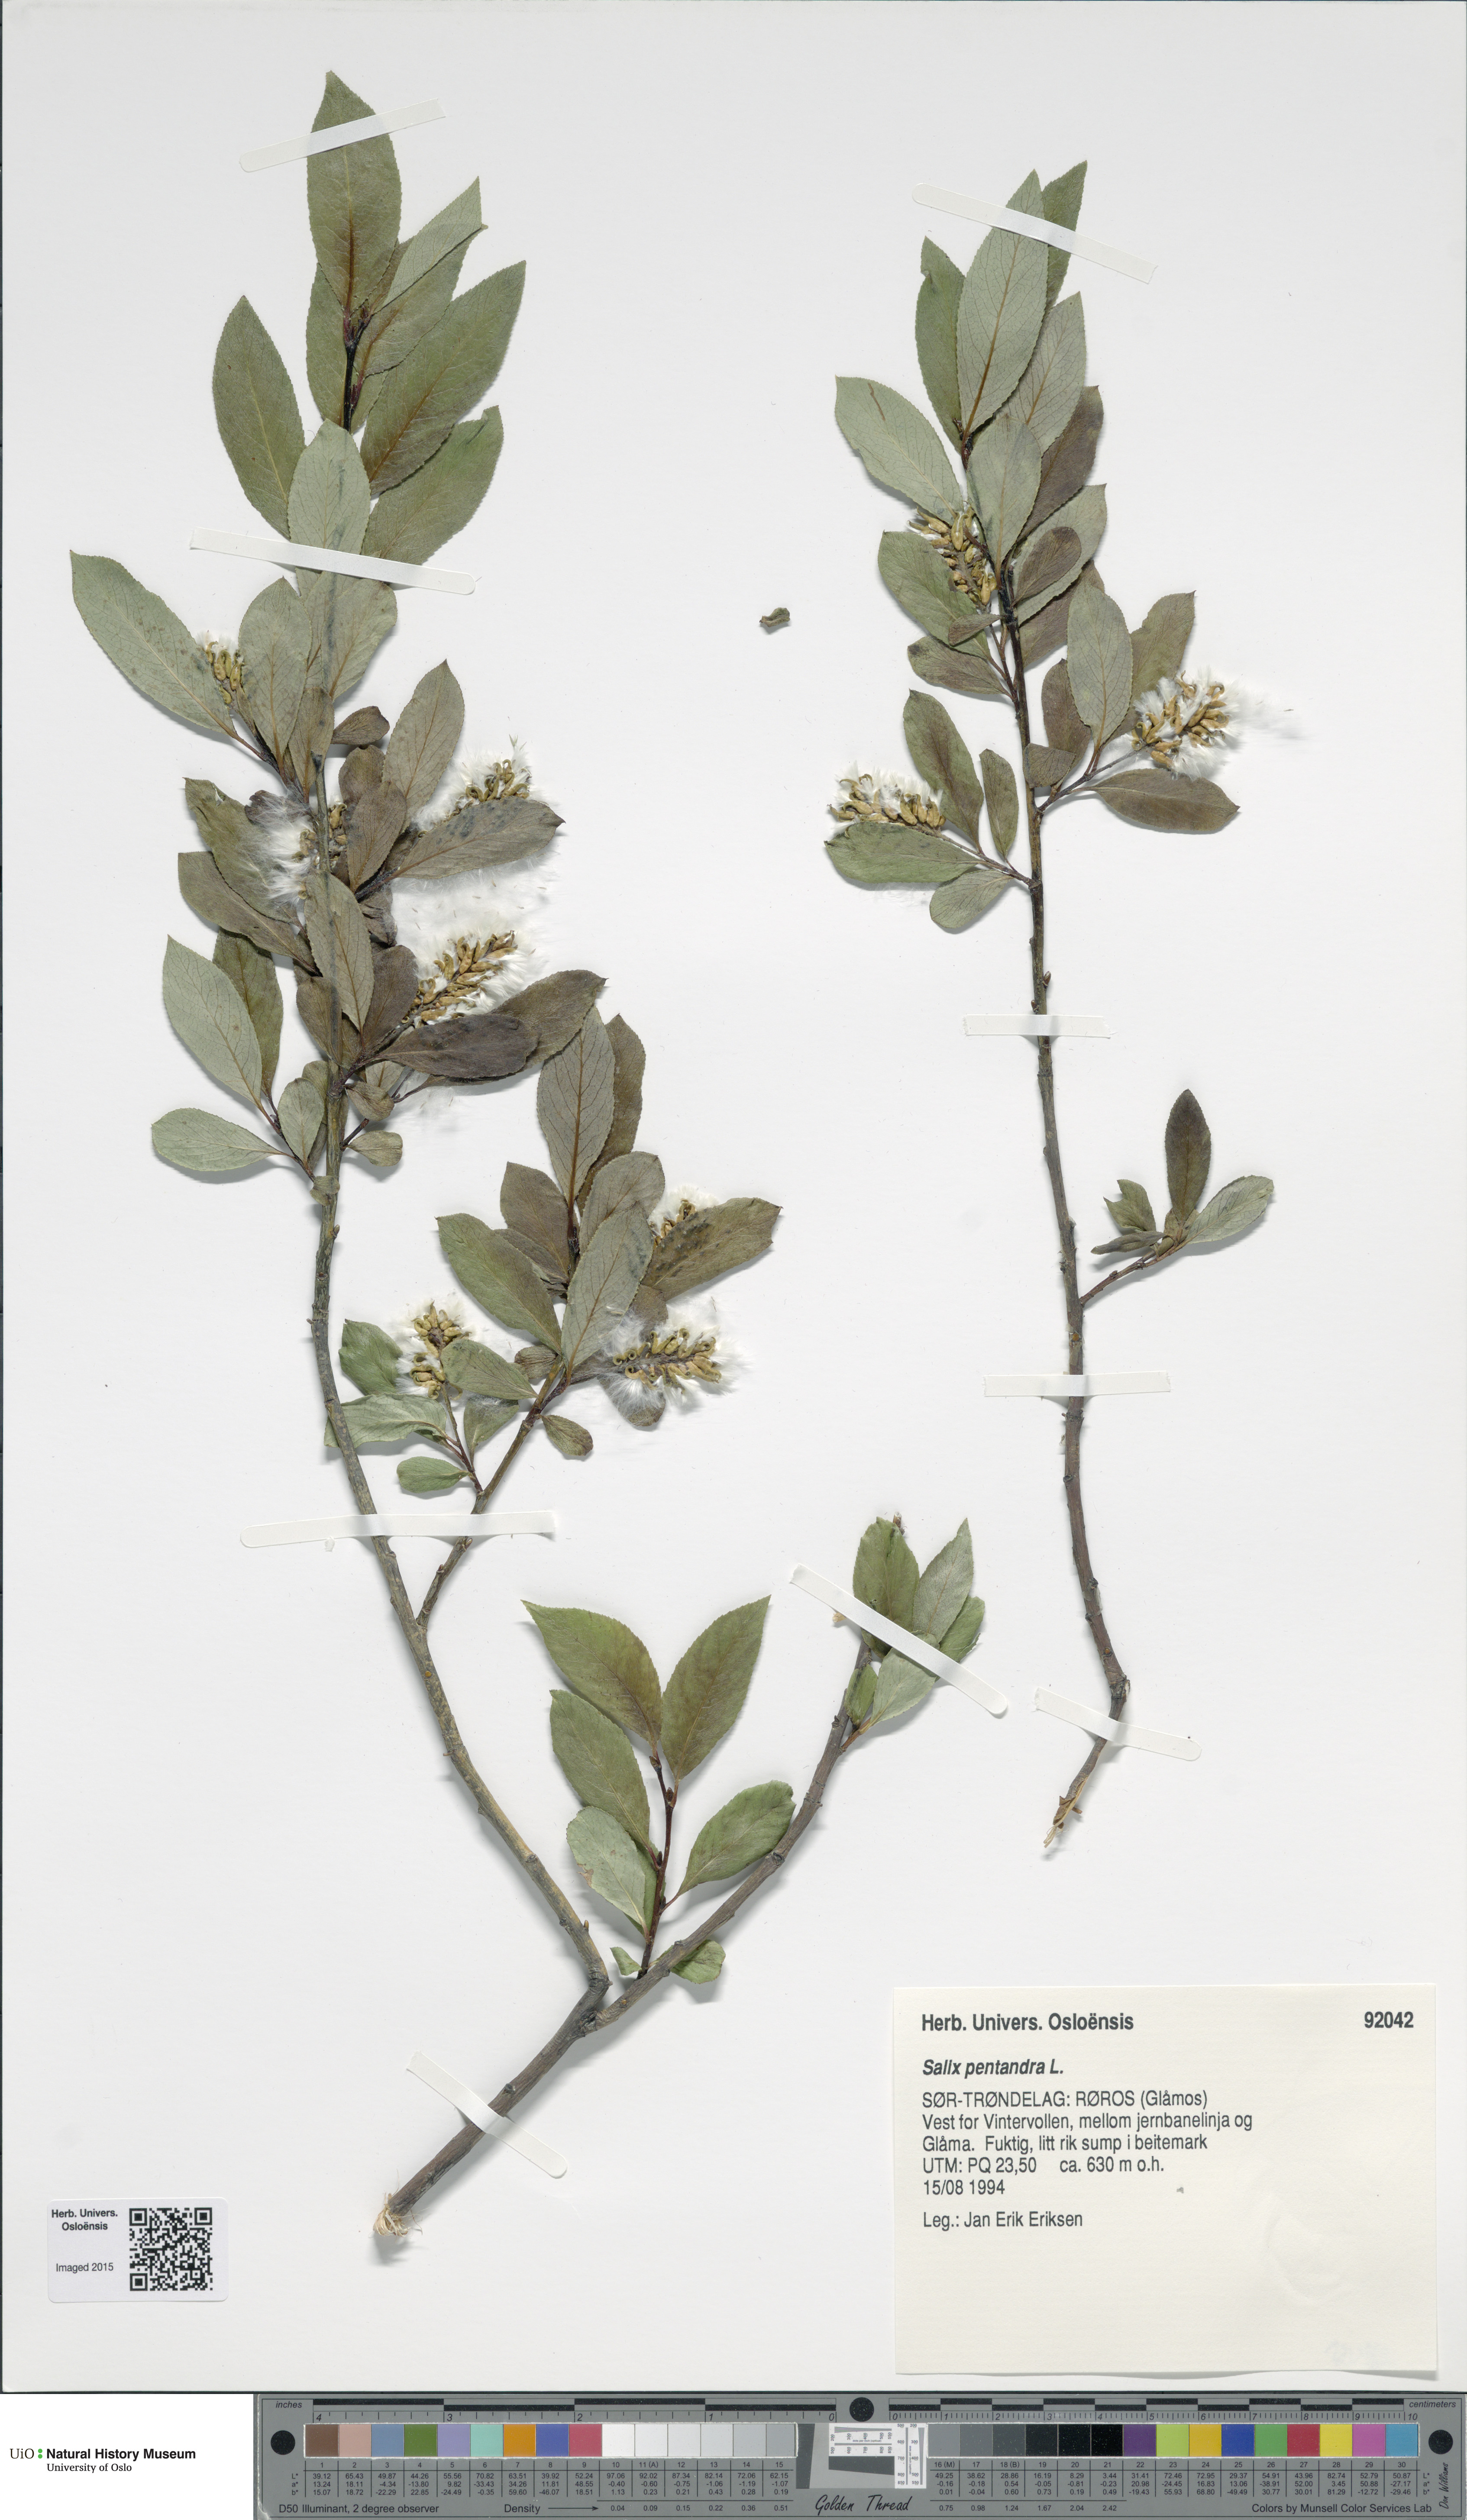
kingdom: Plantae
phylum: Tracheophyta
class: Magnoliopsida
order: Malpighiales
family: Salicaceae
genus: Salix
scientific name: Salix pentandra
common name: Bay willow
